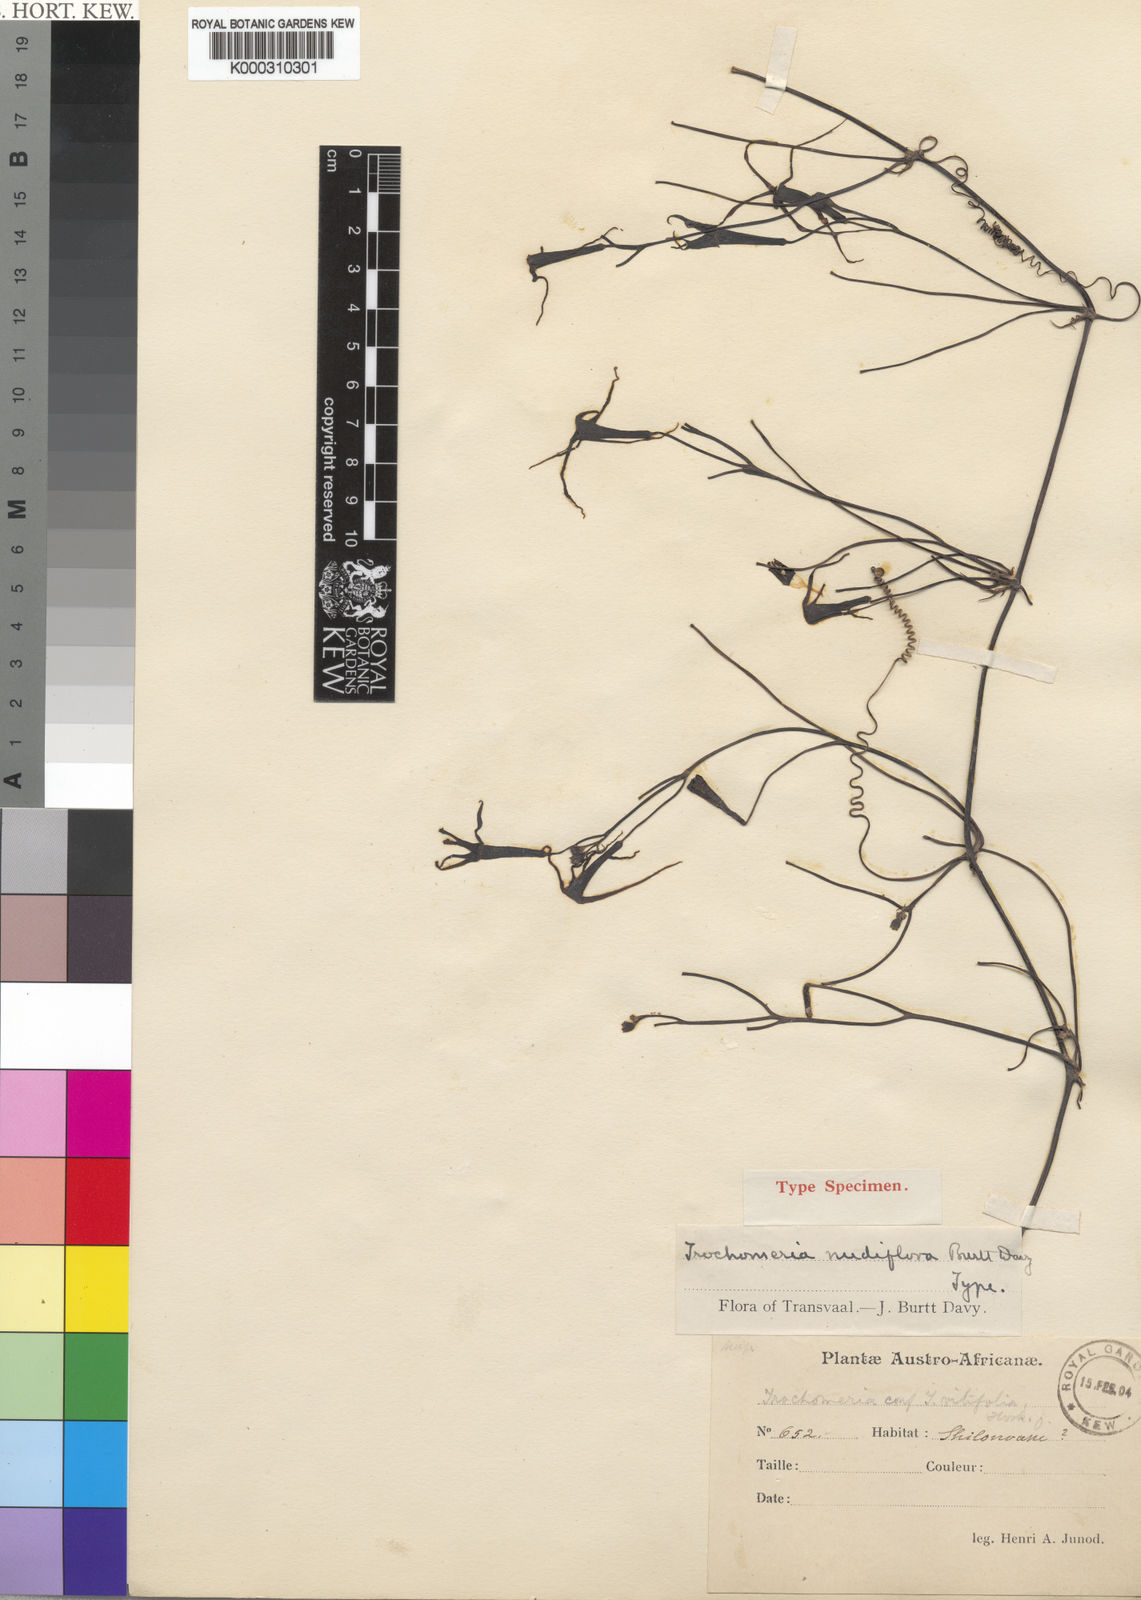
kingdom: Plantae
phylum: Tracheophyta
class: Magnoliopsida
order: Cucurbitales
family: Cucurbitaceae
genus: Trochomeria
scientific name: Trochomeria macrocarpa
